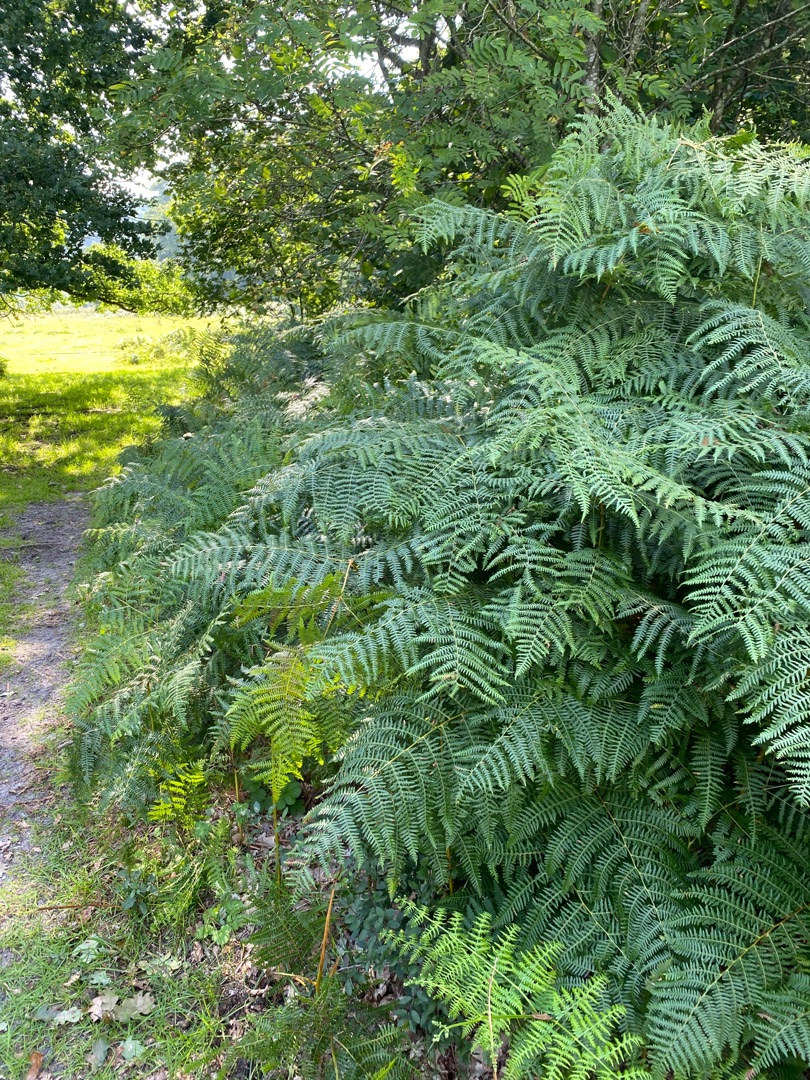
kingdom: Plantae
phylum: Tracheophyta
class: Polypodiopsida
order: Polypodiales
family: Dennstaedtiaceae
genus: Pteridium
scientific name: Pteridium aquilinum
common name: Ørnebregne
